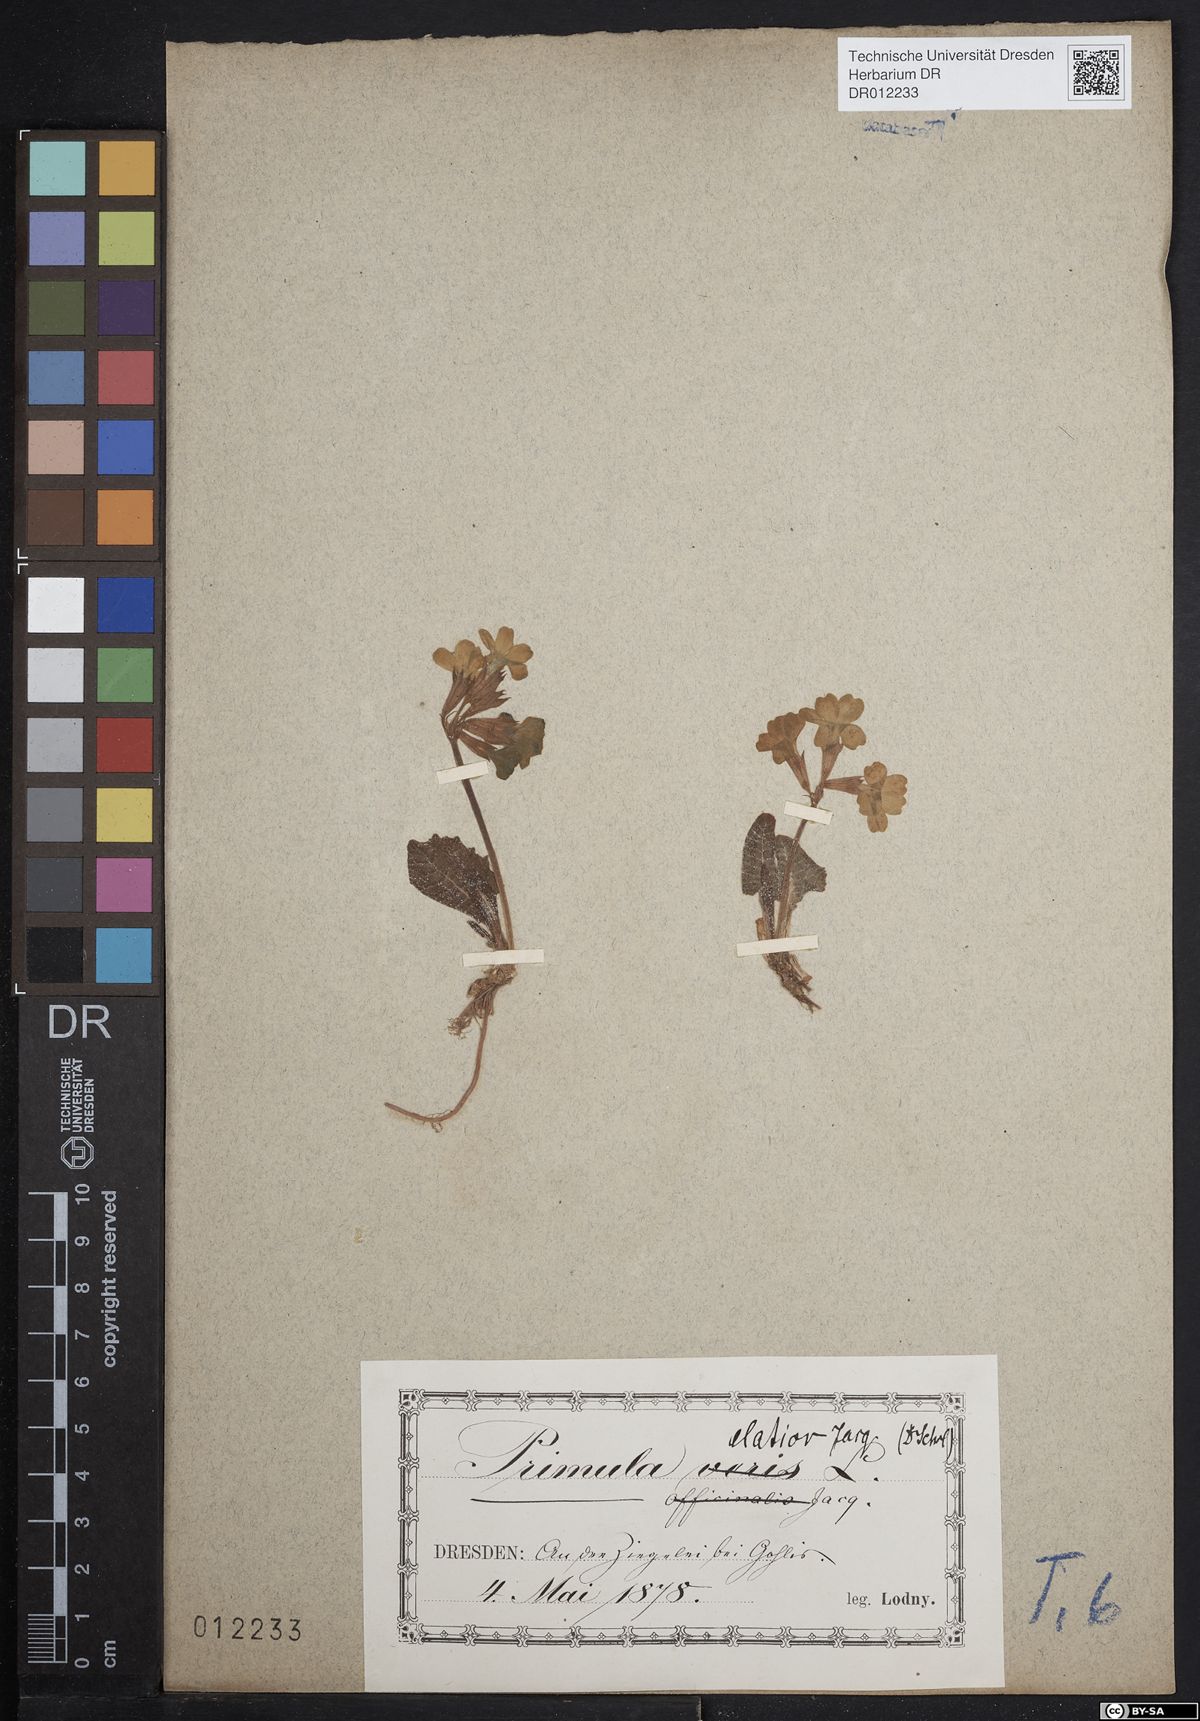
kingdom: Plantae
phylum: Tracheophyta
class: Magnoliopsida
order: Ericales
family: Primulaceae
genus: Primula
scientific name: Primula elatior
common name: Oxlip
